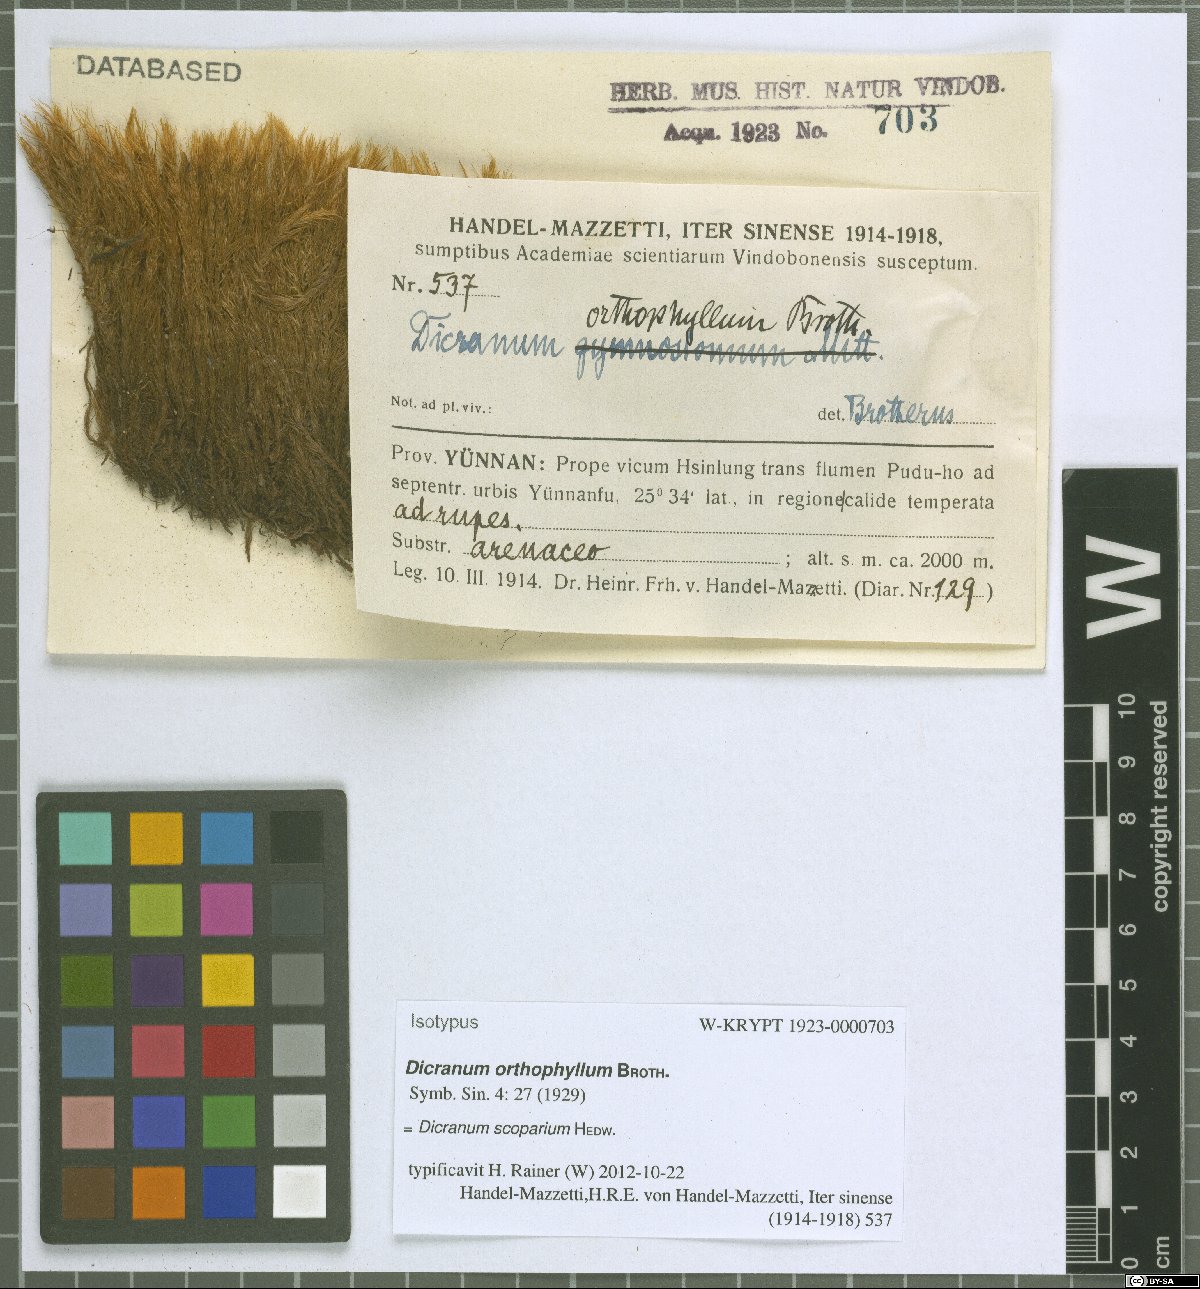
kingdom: Plantae
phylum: Bryophyta
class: Bryopsida
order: Dicranales
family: Dicranaceae
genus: Dicranum
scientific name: Dicranum scoparium
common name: Broom fork-moss
